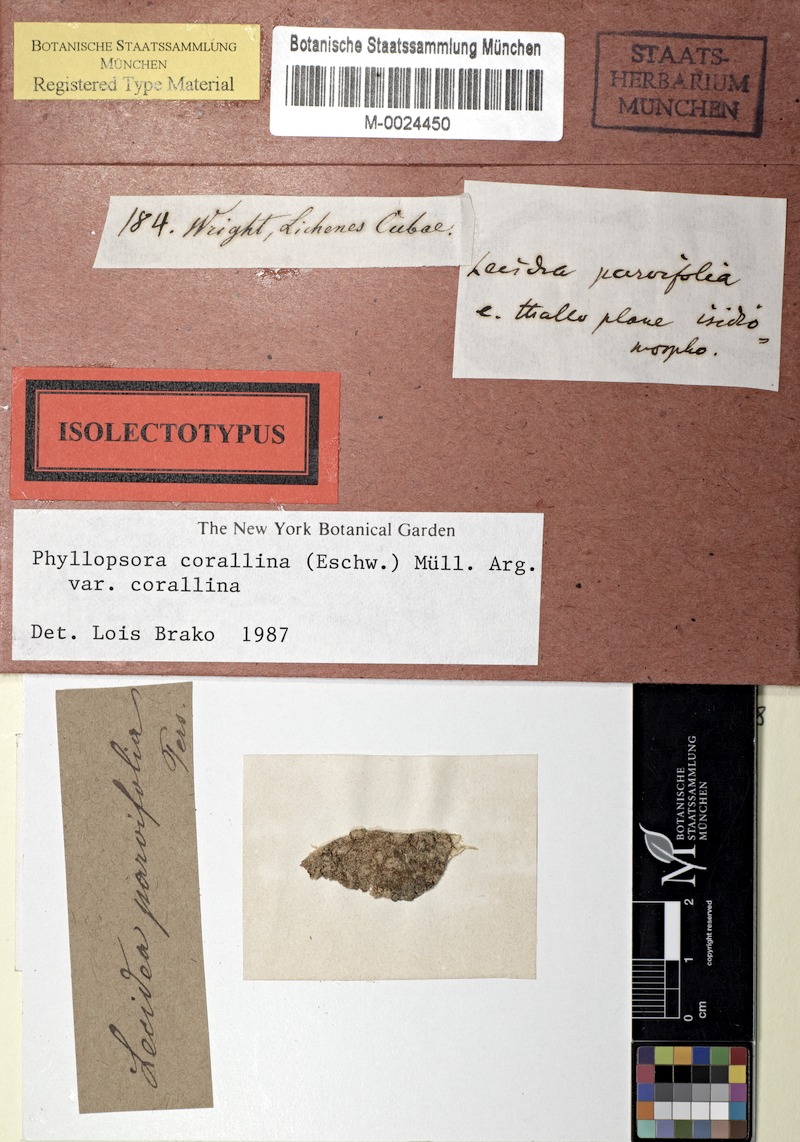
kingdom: Fungi
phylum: Ascomycota
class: Lecanoromycetes
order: Lecanorales
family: Ramalinaceae
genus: Phyllopsora
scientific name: Phyllopsora corallina
